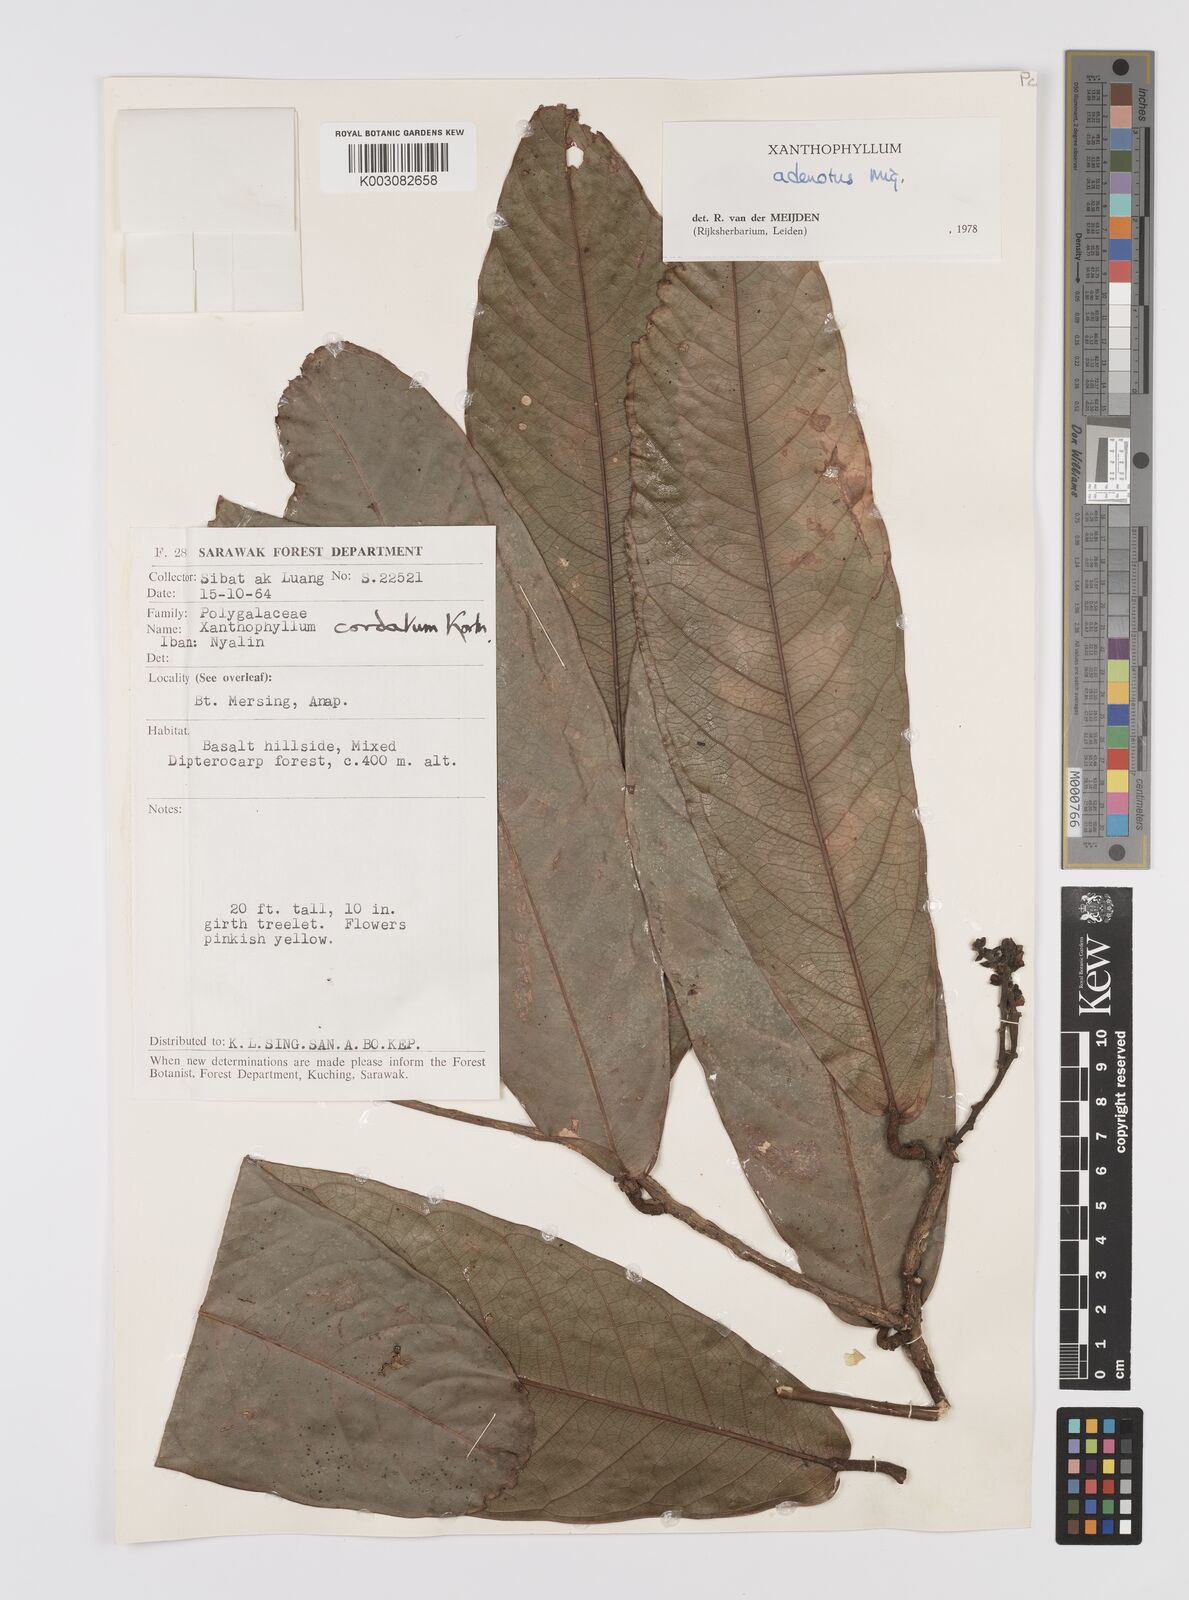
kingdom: Plantae
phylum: Tracheophyta
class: Magnoliopsida
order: Fabales
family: Polygalaceae
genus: Xanthophyllum
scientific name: Xanthophyllum adenotus
